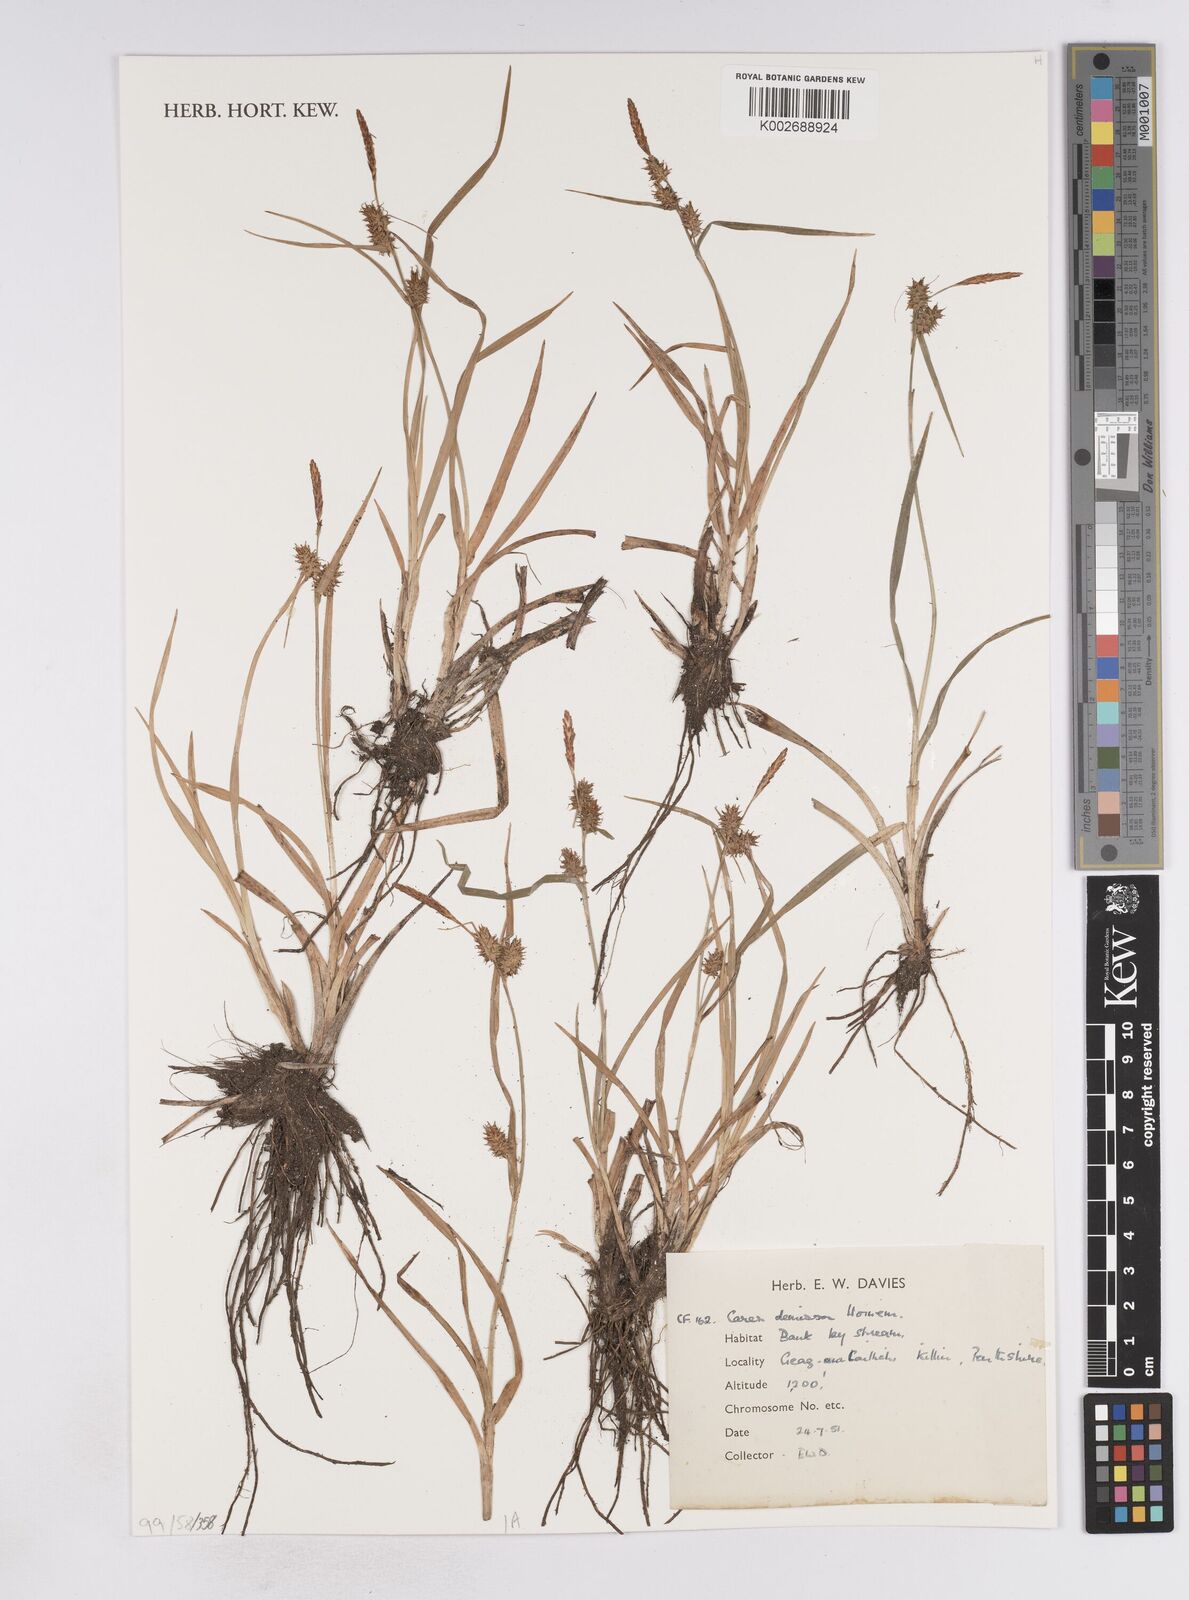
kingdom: Plantae
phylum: Tracheophyta
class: Liliopsida
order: Poales
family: Cyperaceae
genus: Carex
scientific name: Carex demissa
